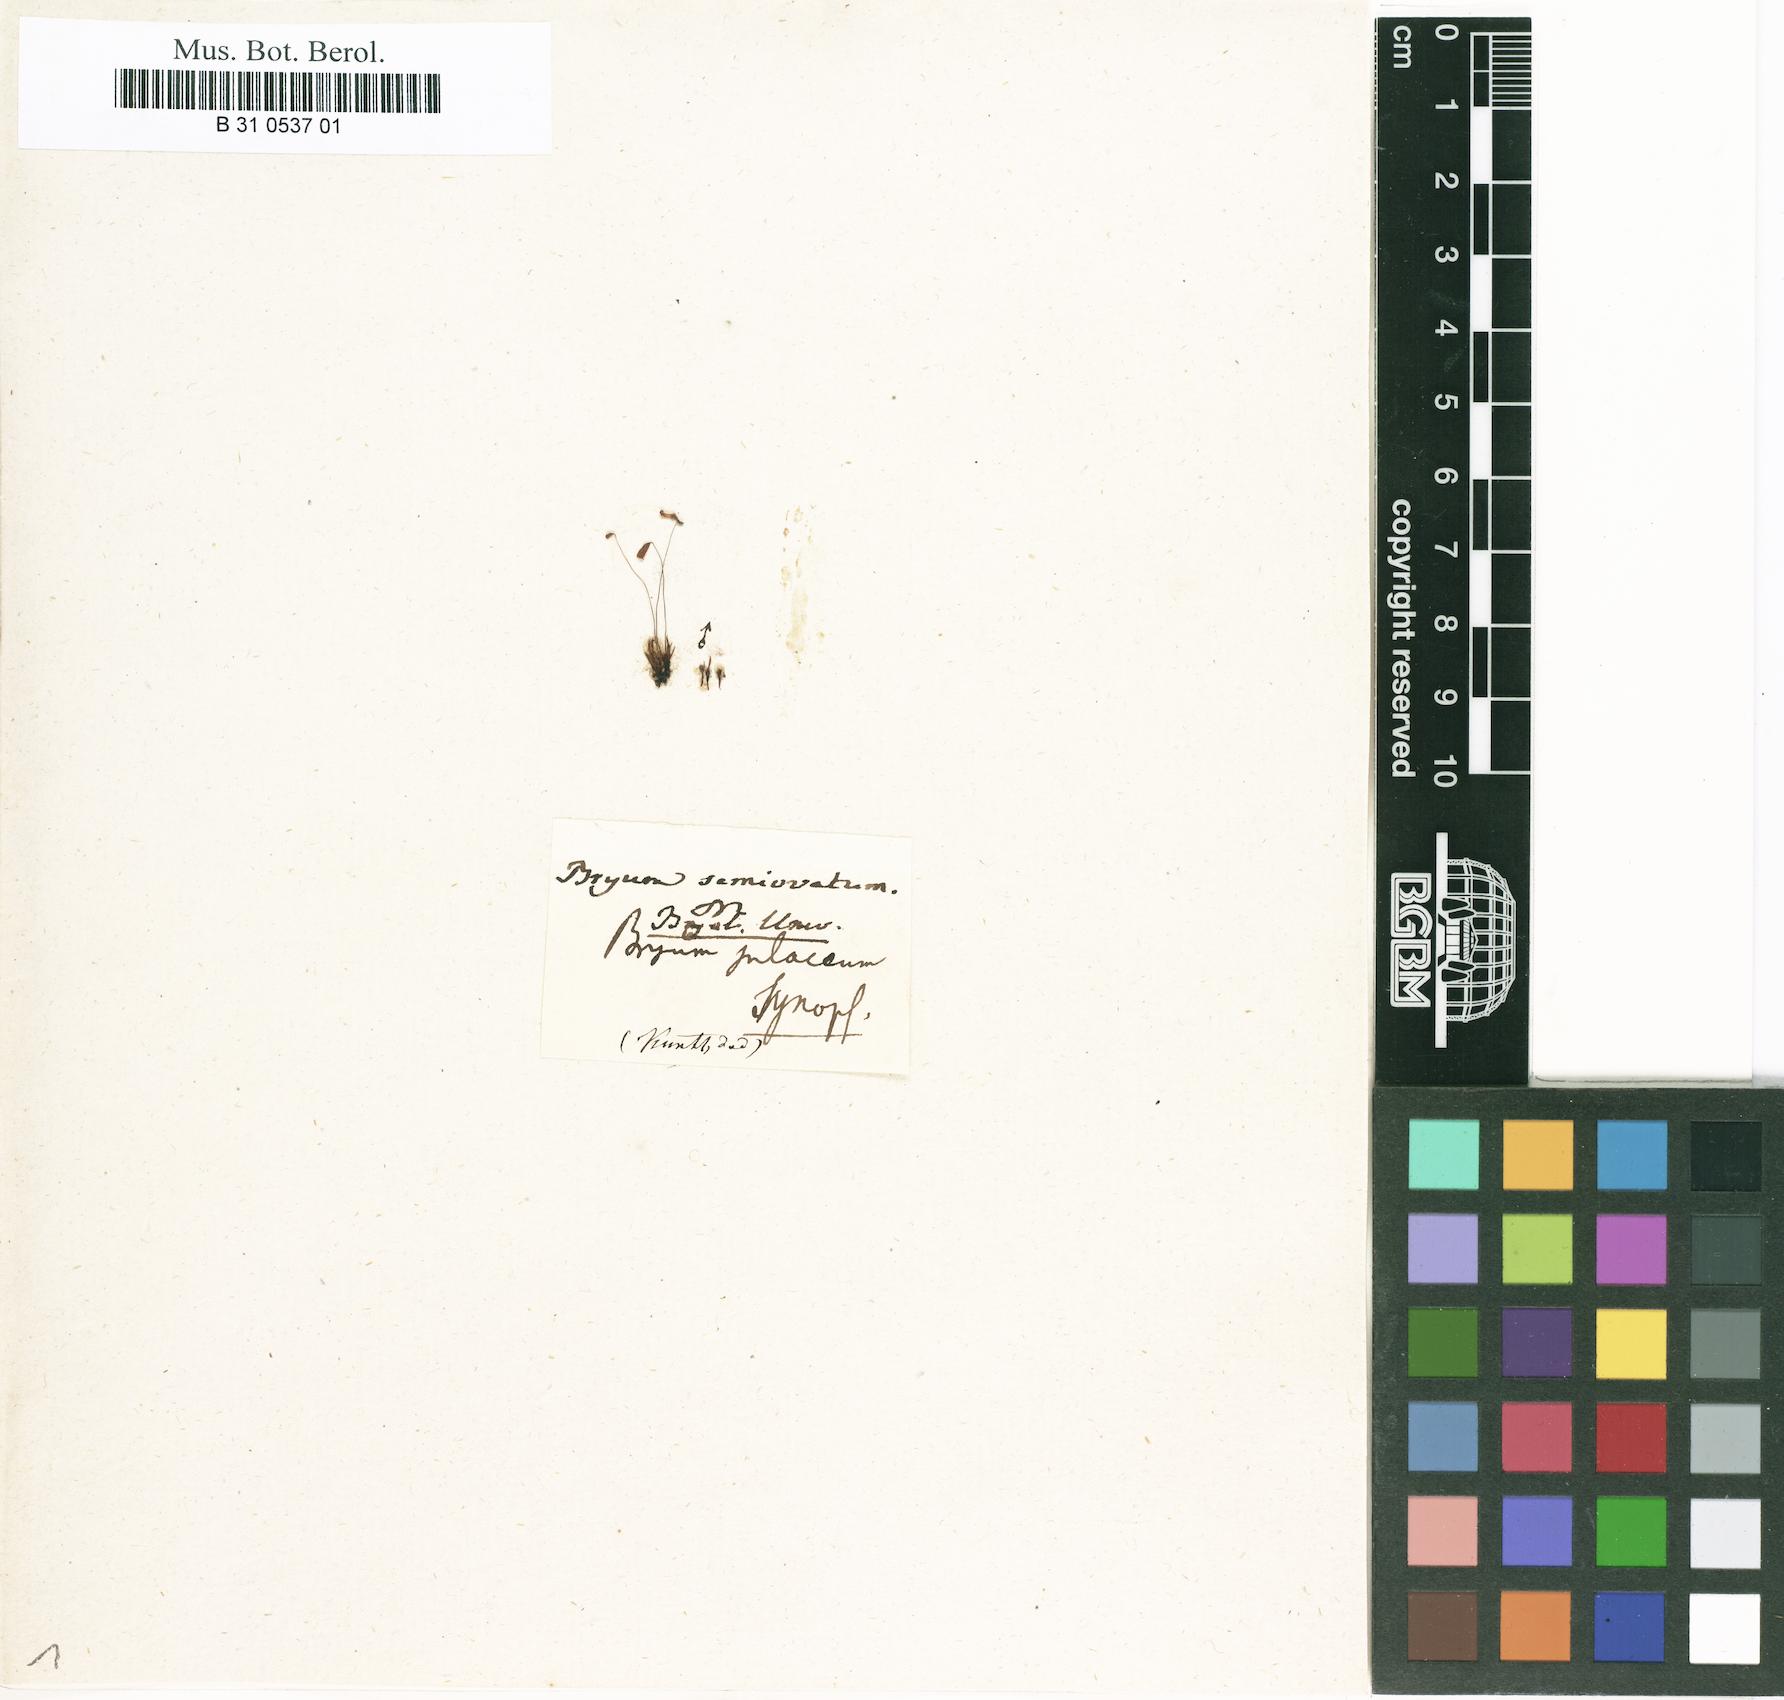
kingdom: Plantae
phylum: Bryophyta
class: Bryopsida
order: Bryales
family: Bryaceae
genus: Anomobryum
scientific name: Anomobryum semiovatum
